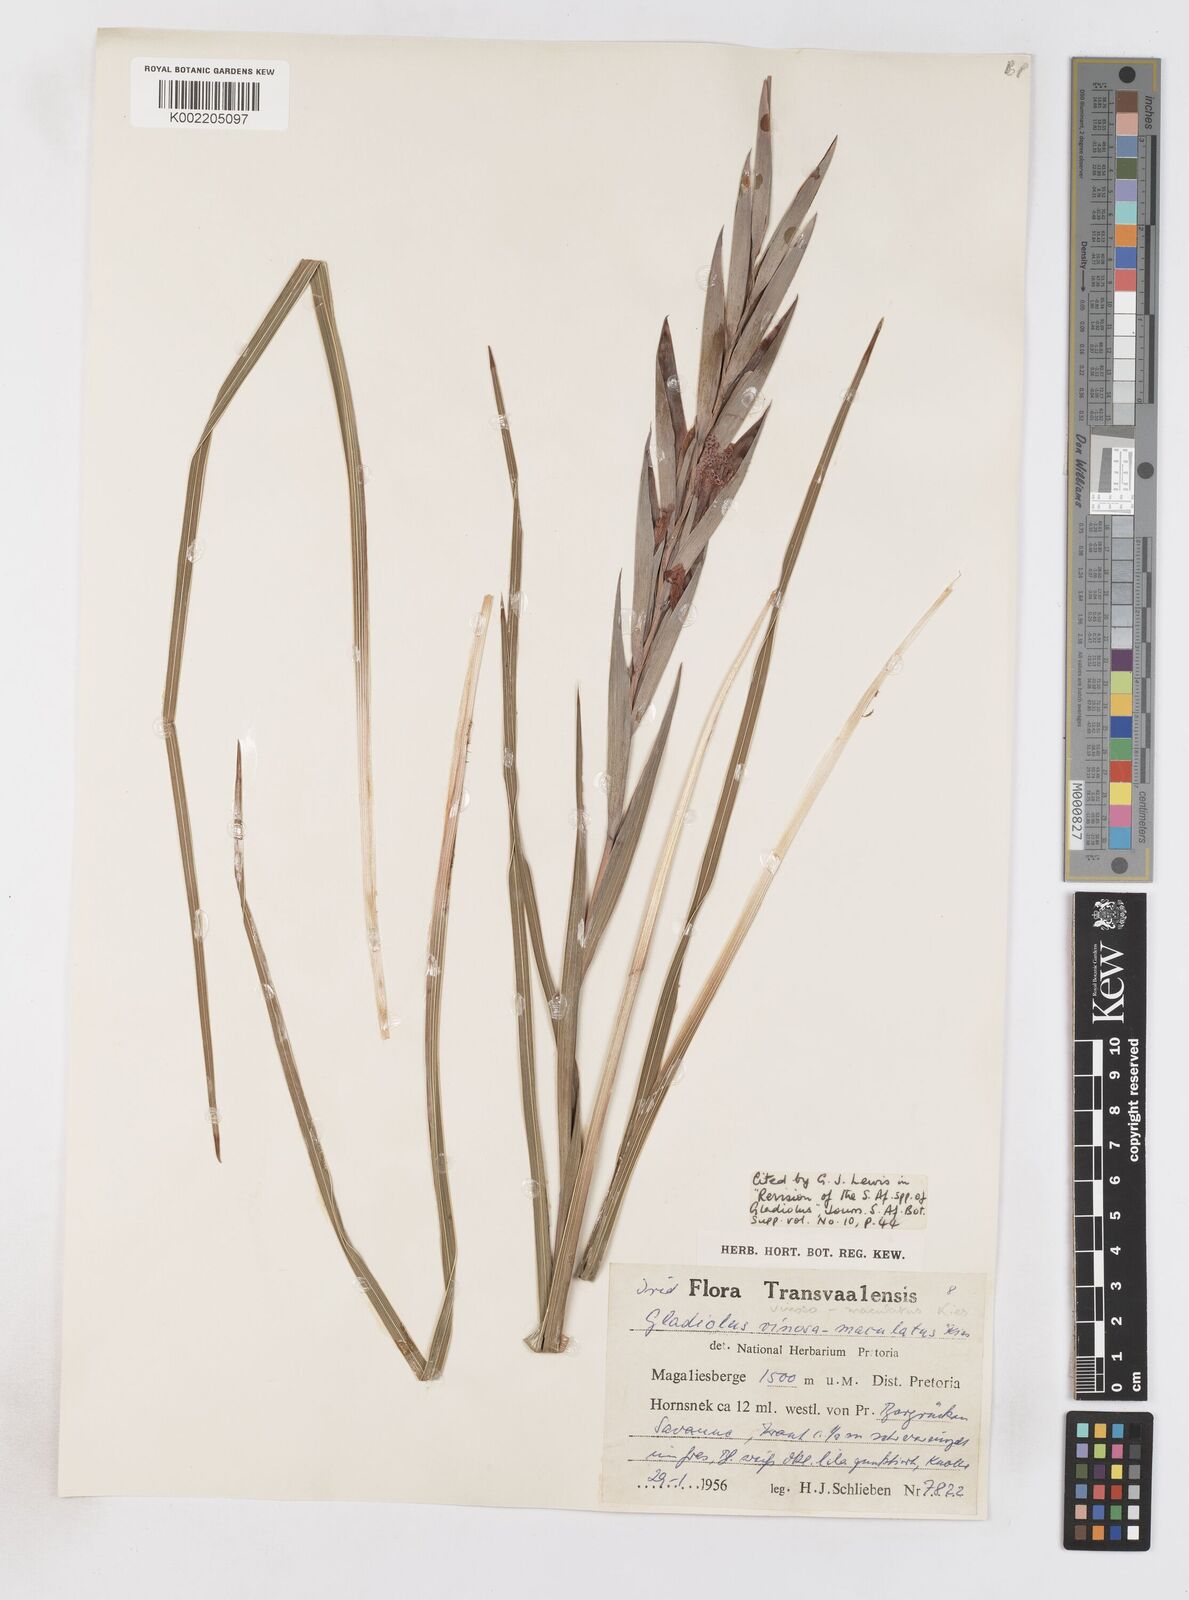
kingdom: Plantae
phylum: Tracheophyta
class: Liliopsida
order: Asparagales
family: Iridaceae
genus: Gladiolus
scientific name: Gladiolus vinosomaculatus
